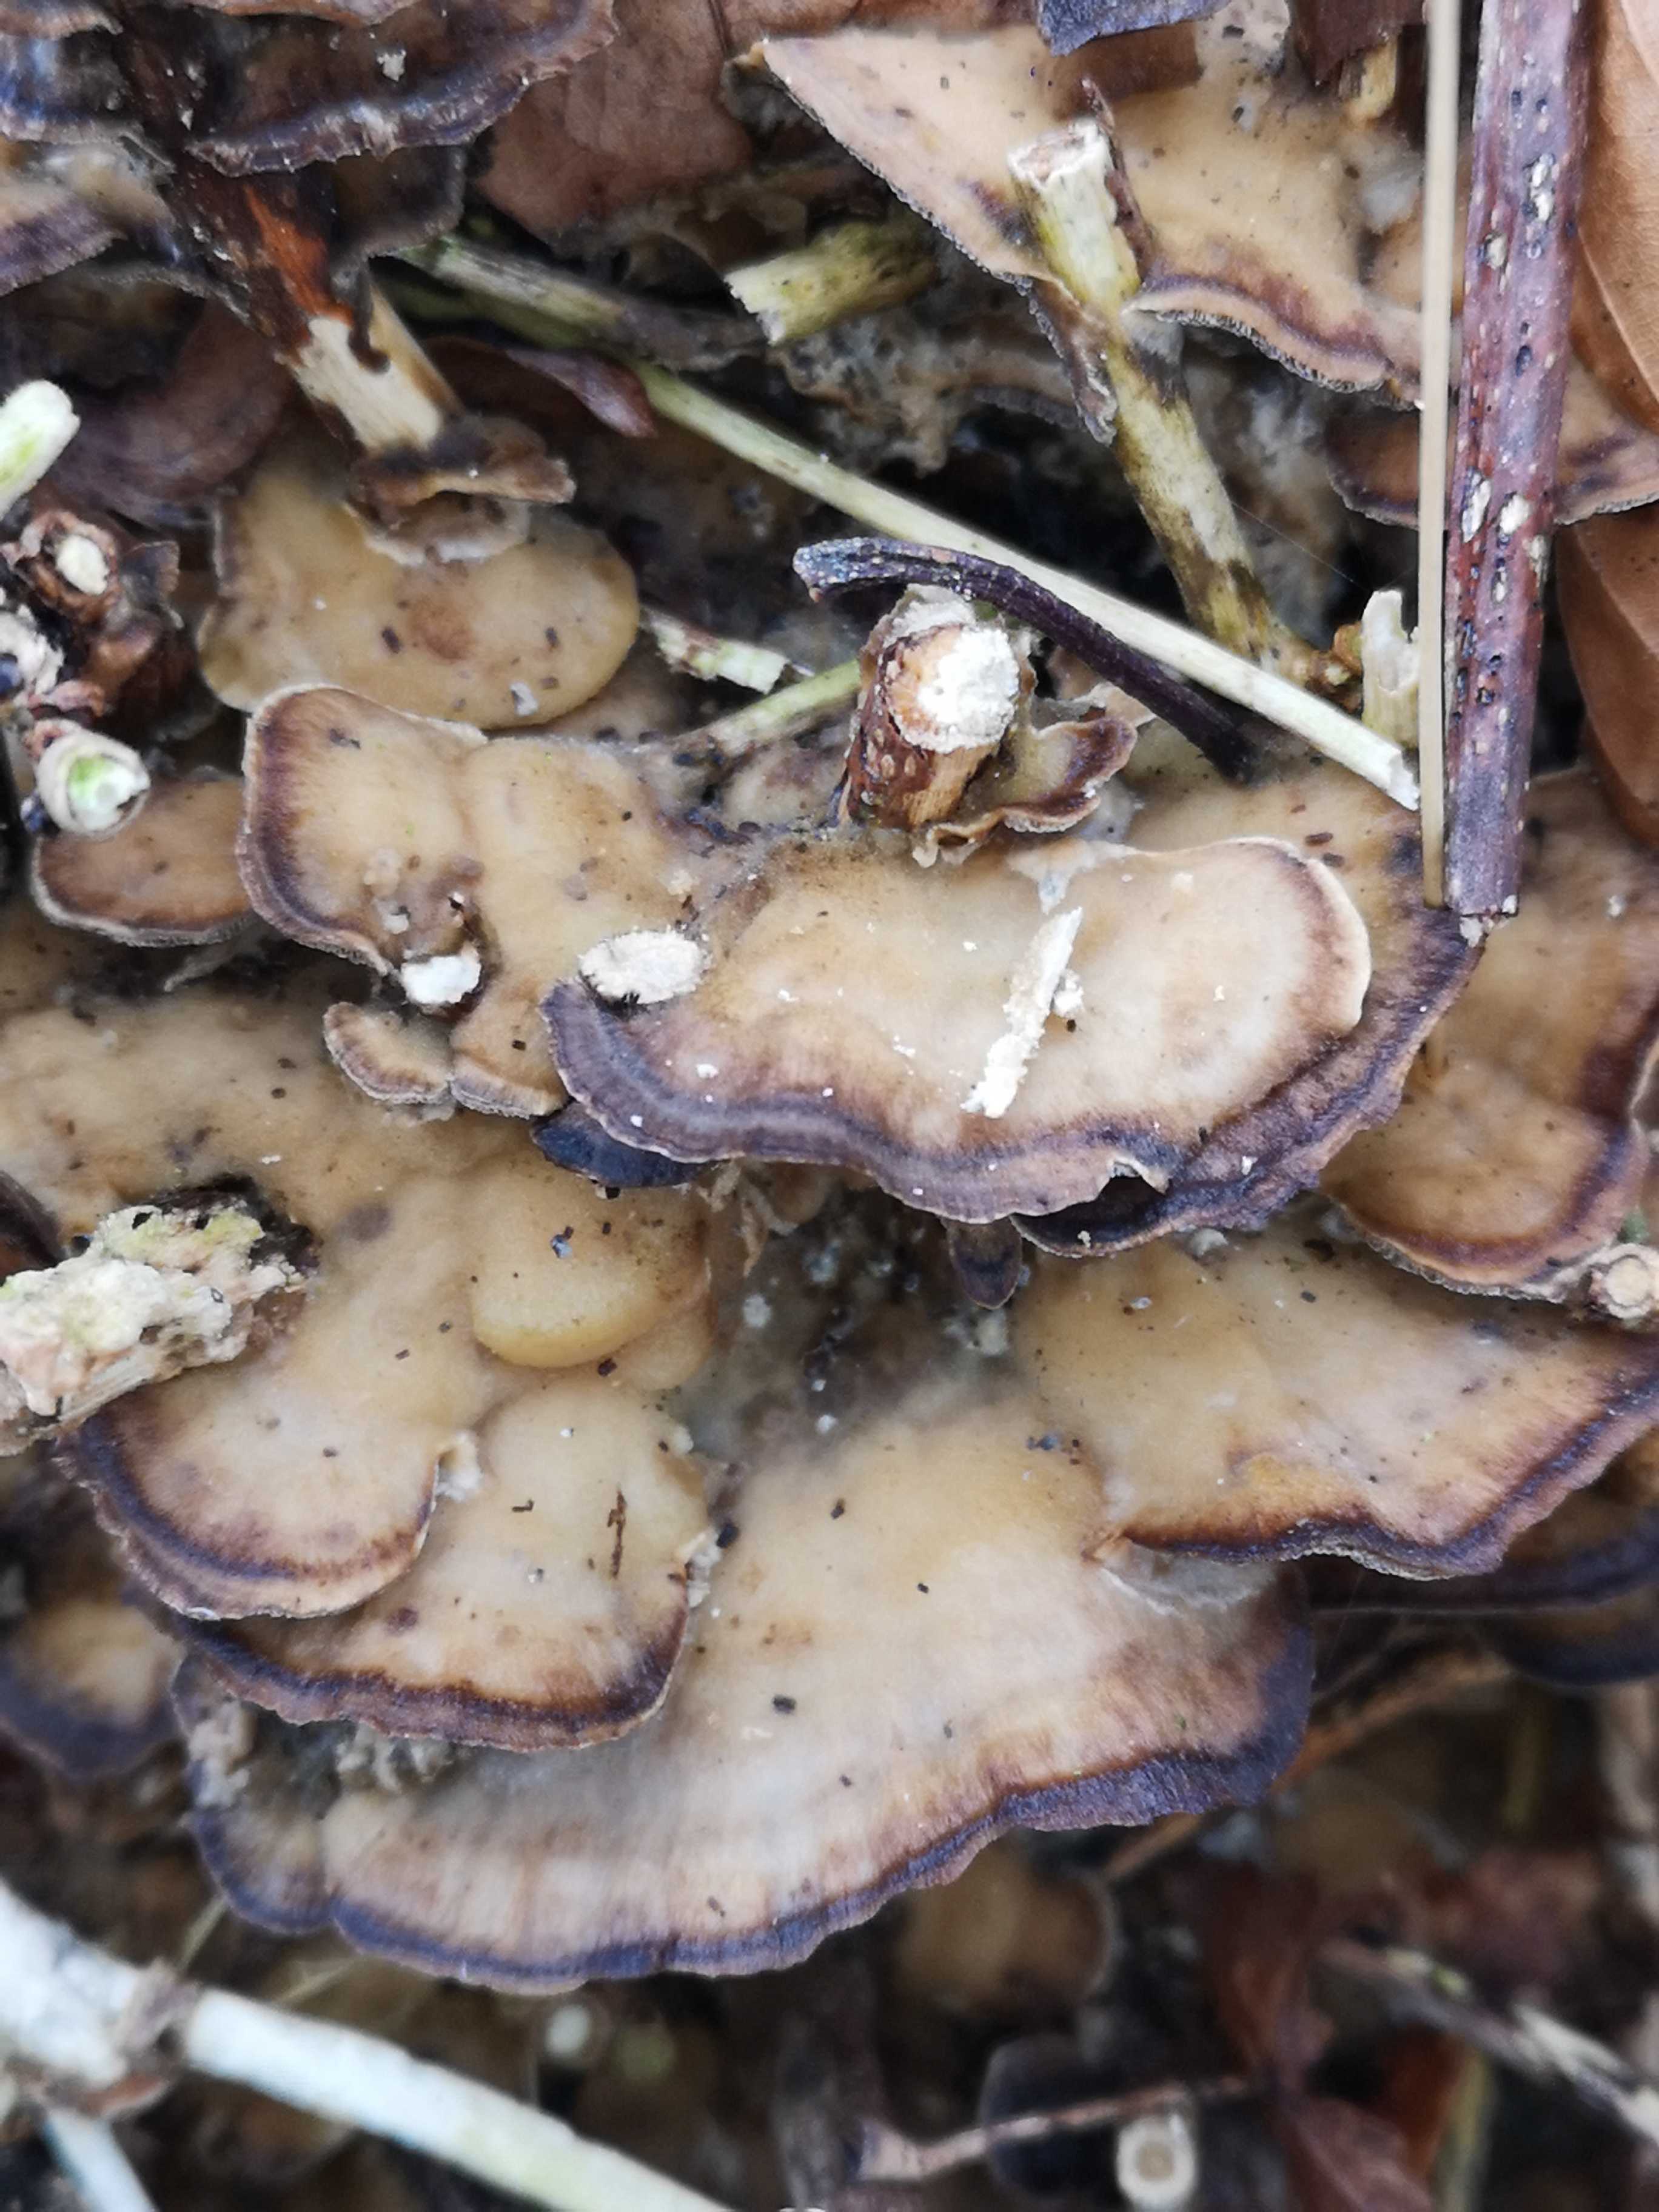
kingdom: Fungi
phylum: Basidiomycota
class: Agaricomycetes
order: Polyporales
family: Phanerochaetaceae
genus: Bjerkandera
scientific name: Bjerkandera adusta
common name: sveden sodporesvamp
